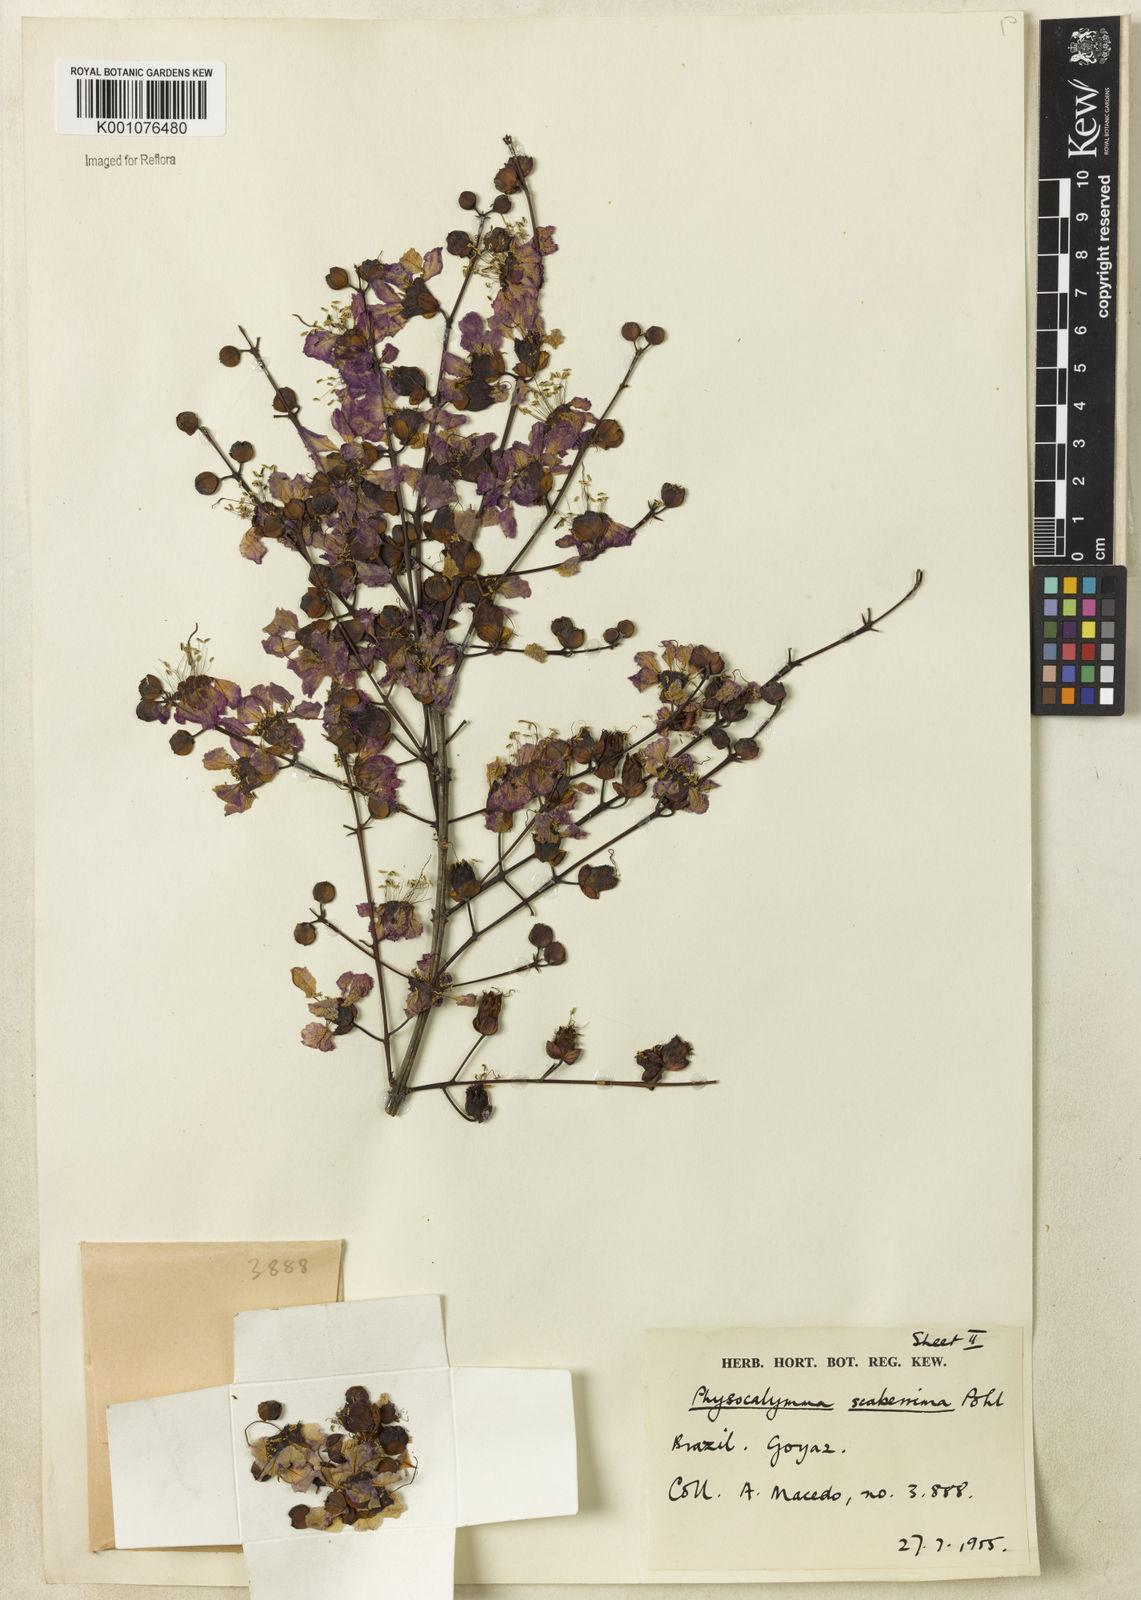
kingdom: Plantae
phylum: Tracheophyta
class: Magnoliopsida
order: Myrtales
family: Lythraceae
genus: Physocalymma
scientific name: Physocalymma scaberrimum
